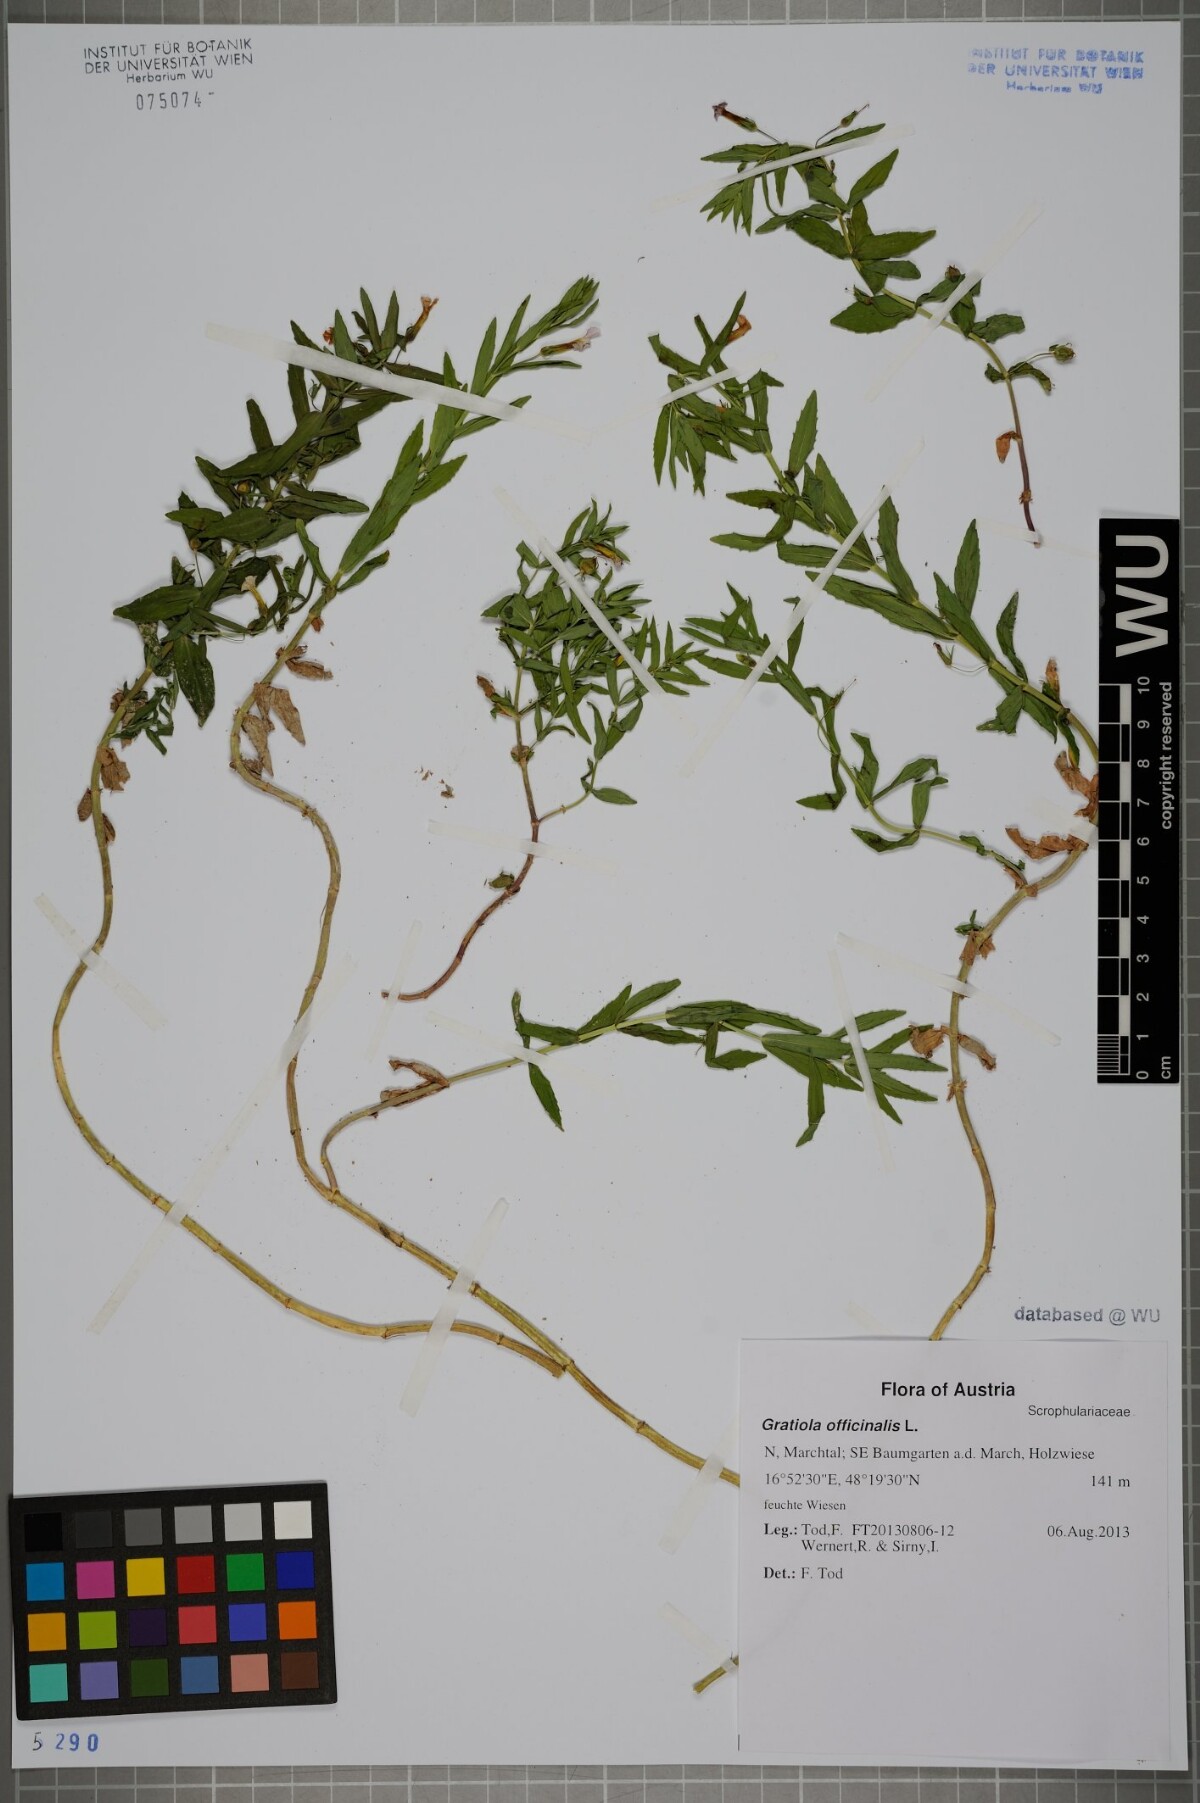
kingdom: Plantae
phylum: Tracheophyta
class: Magnoliopsida
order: Lamiales
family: Plantaginaceae
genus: Gratiola
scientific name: Gratiola officinalis
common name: Gratiola
